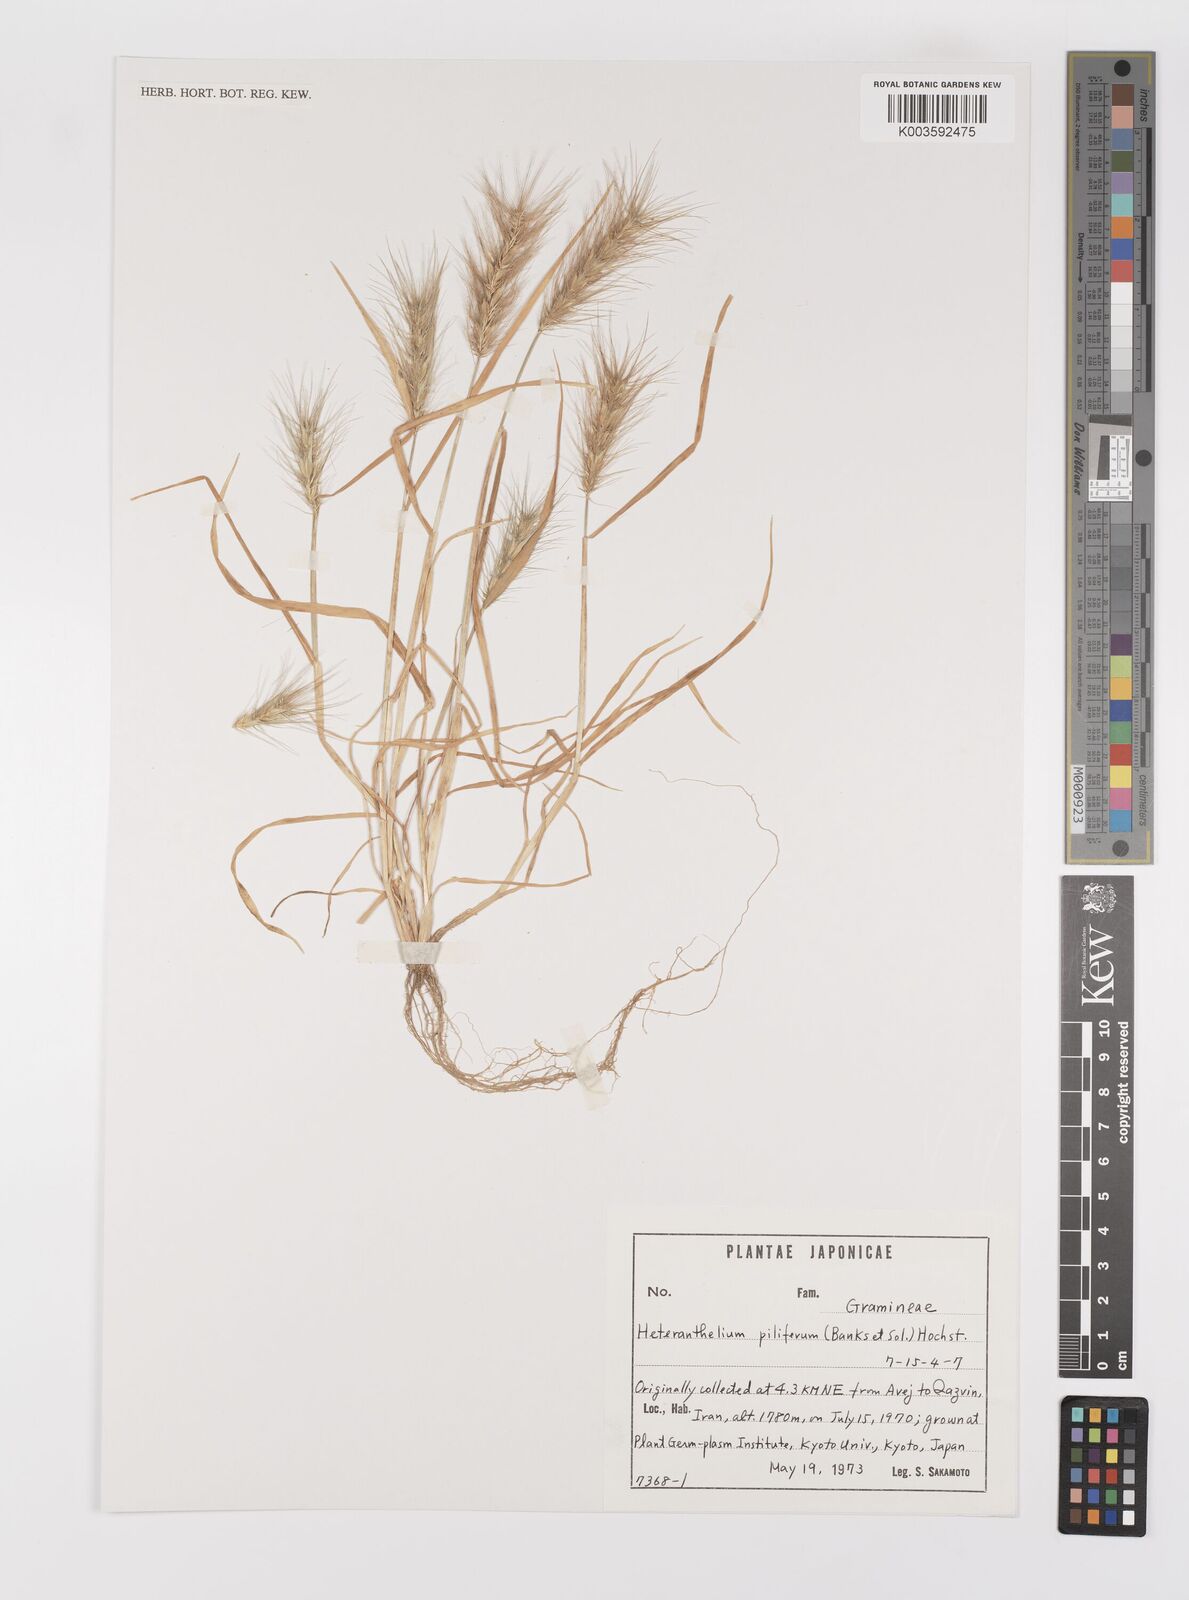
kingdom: Plantae
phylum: Tracheophyta
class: Liliopsida
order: Poales
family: Poaceae
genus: Heteranthelium
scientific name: Heteranthelium piliferum
